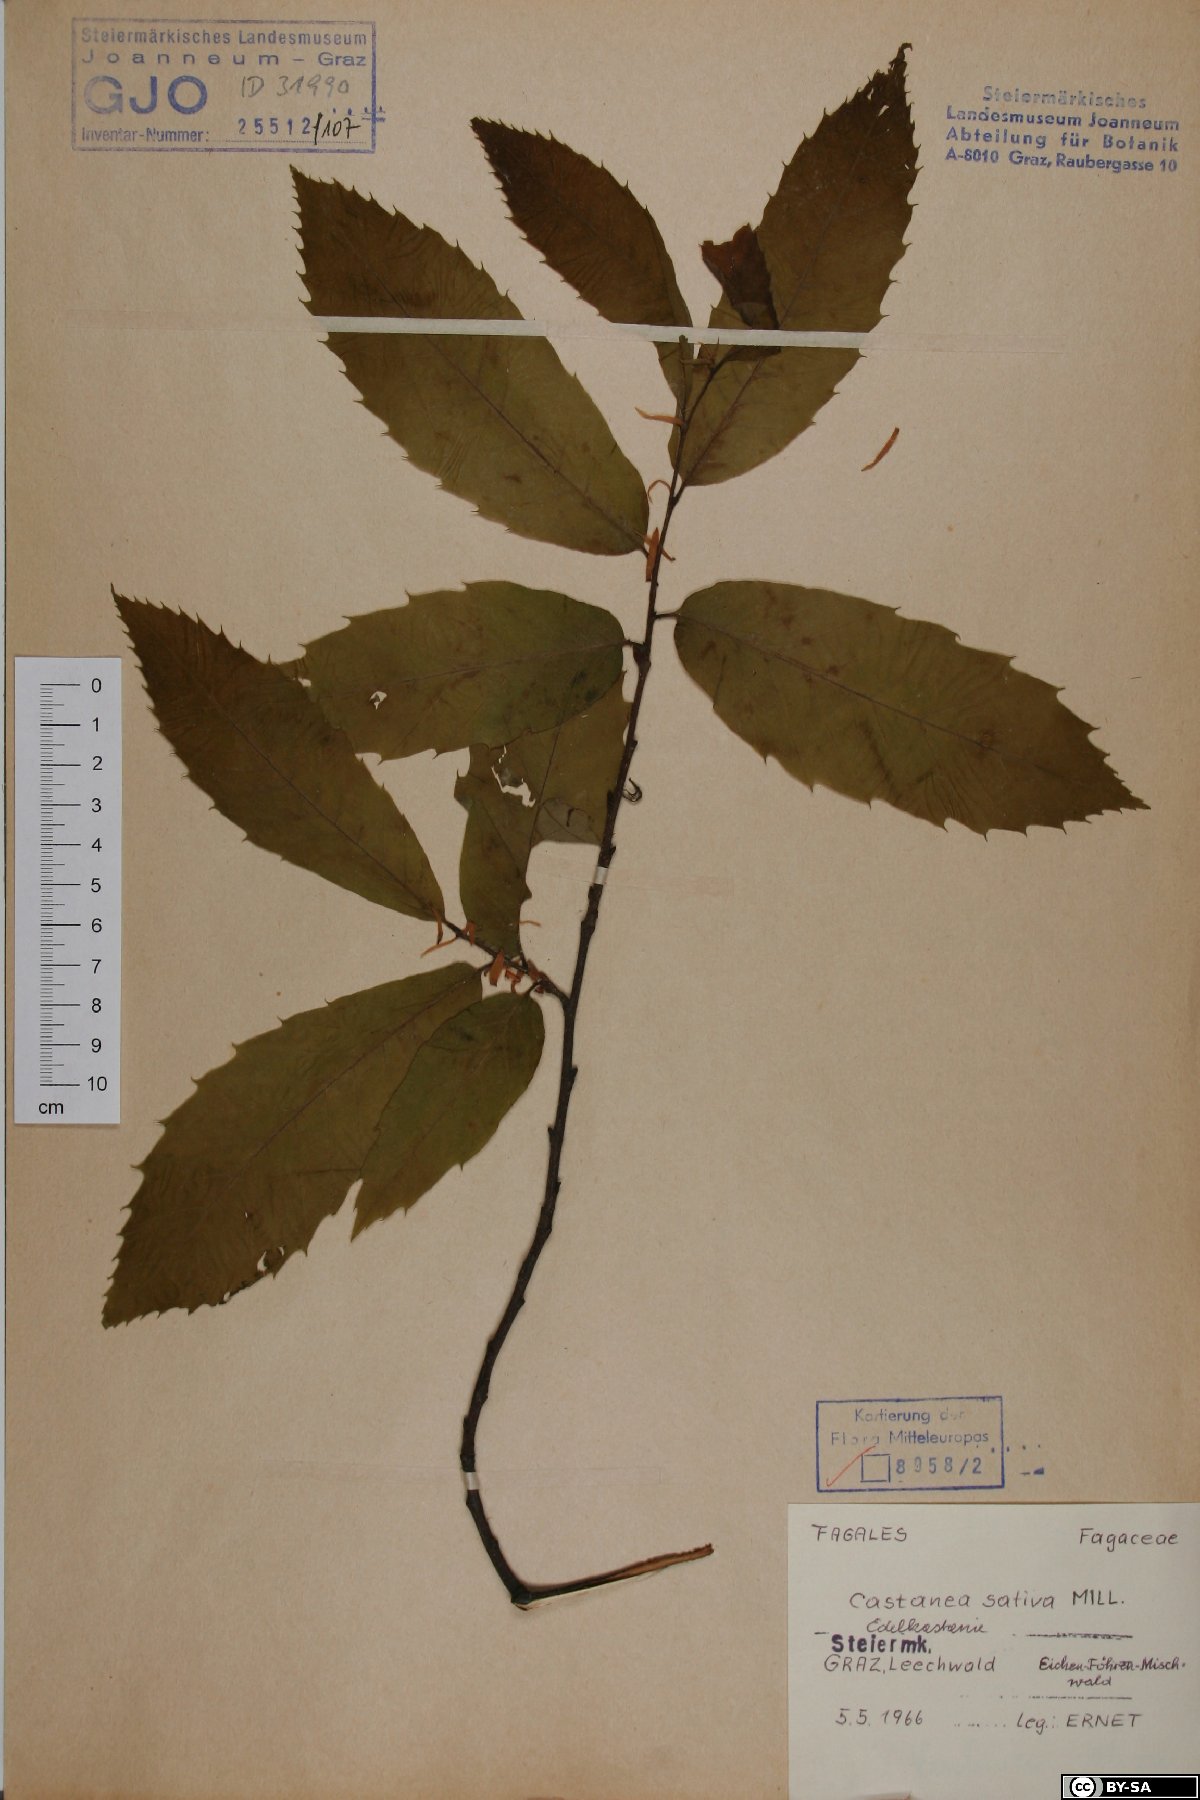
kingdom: Plantae
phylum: Tracheophyta
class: Magnoliopsida
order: Fagales
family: Fagaceae
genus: Castanea
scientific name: Castanea sativa
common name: Sweet chestnut
